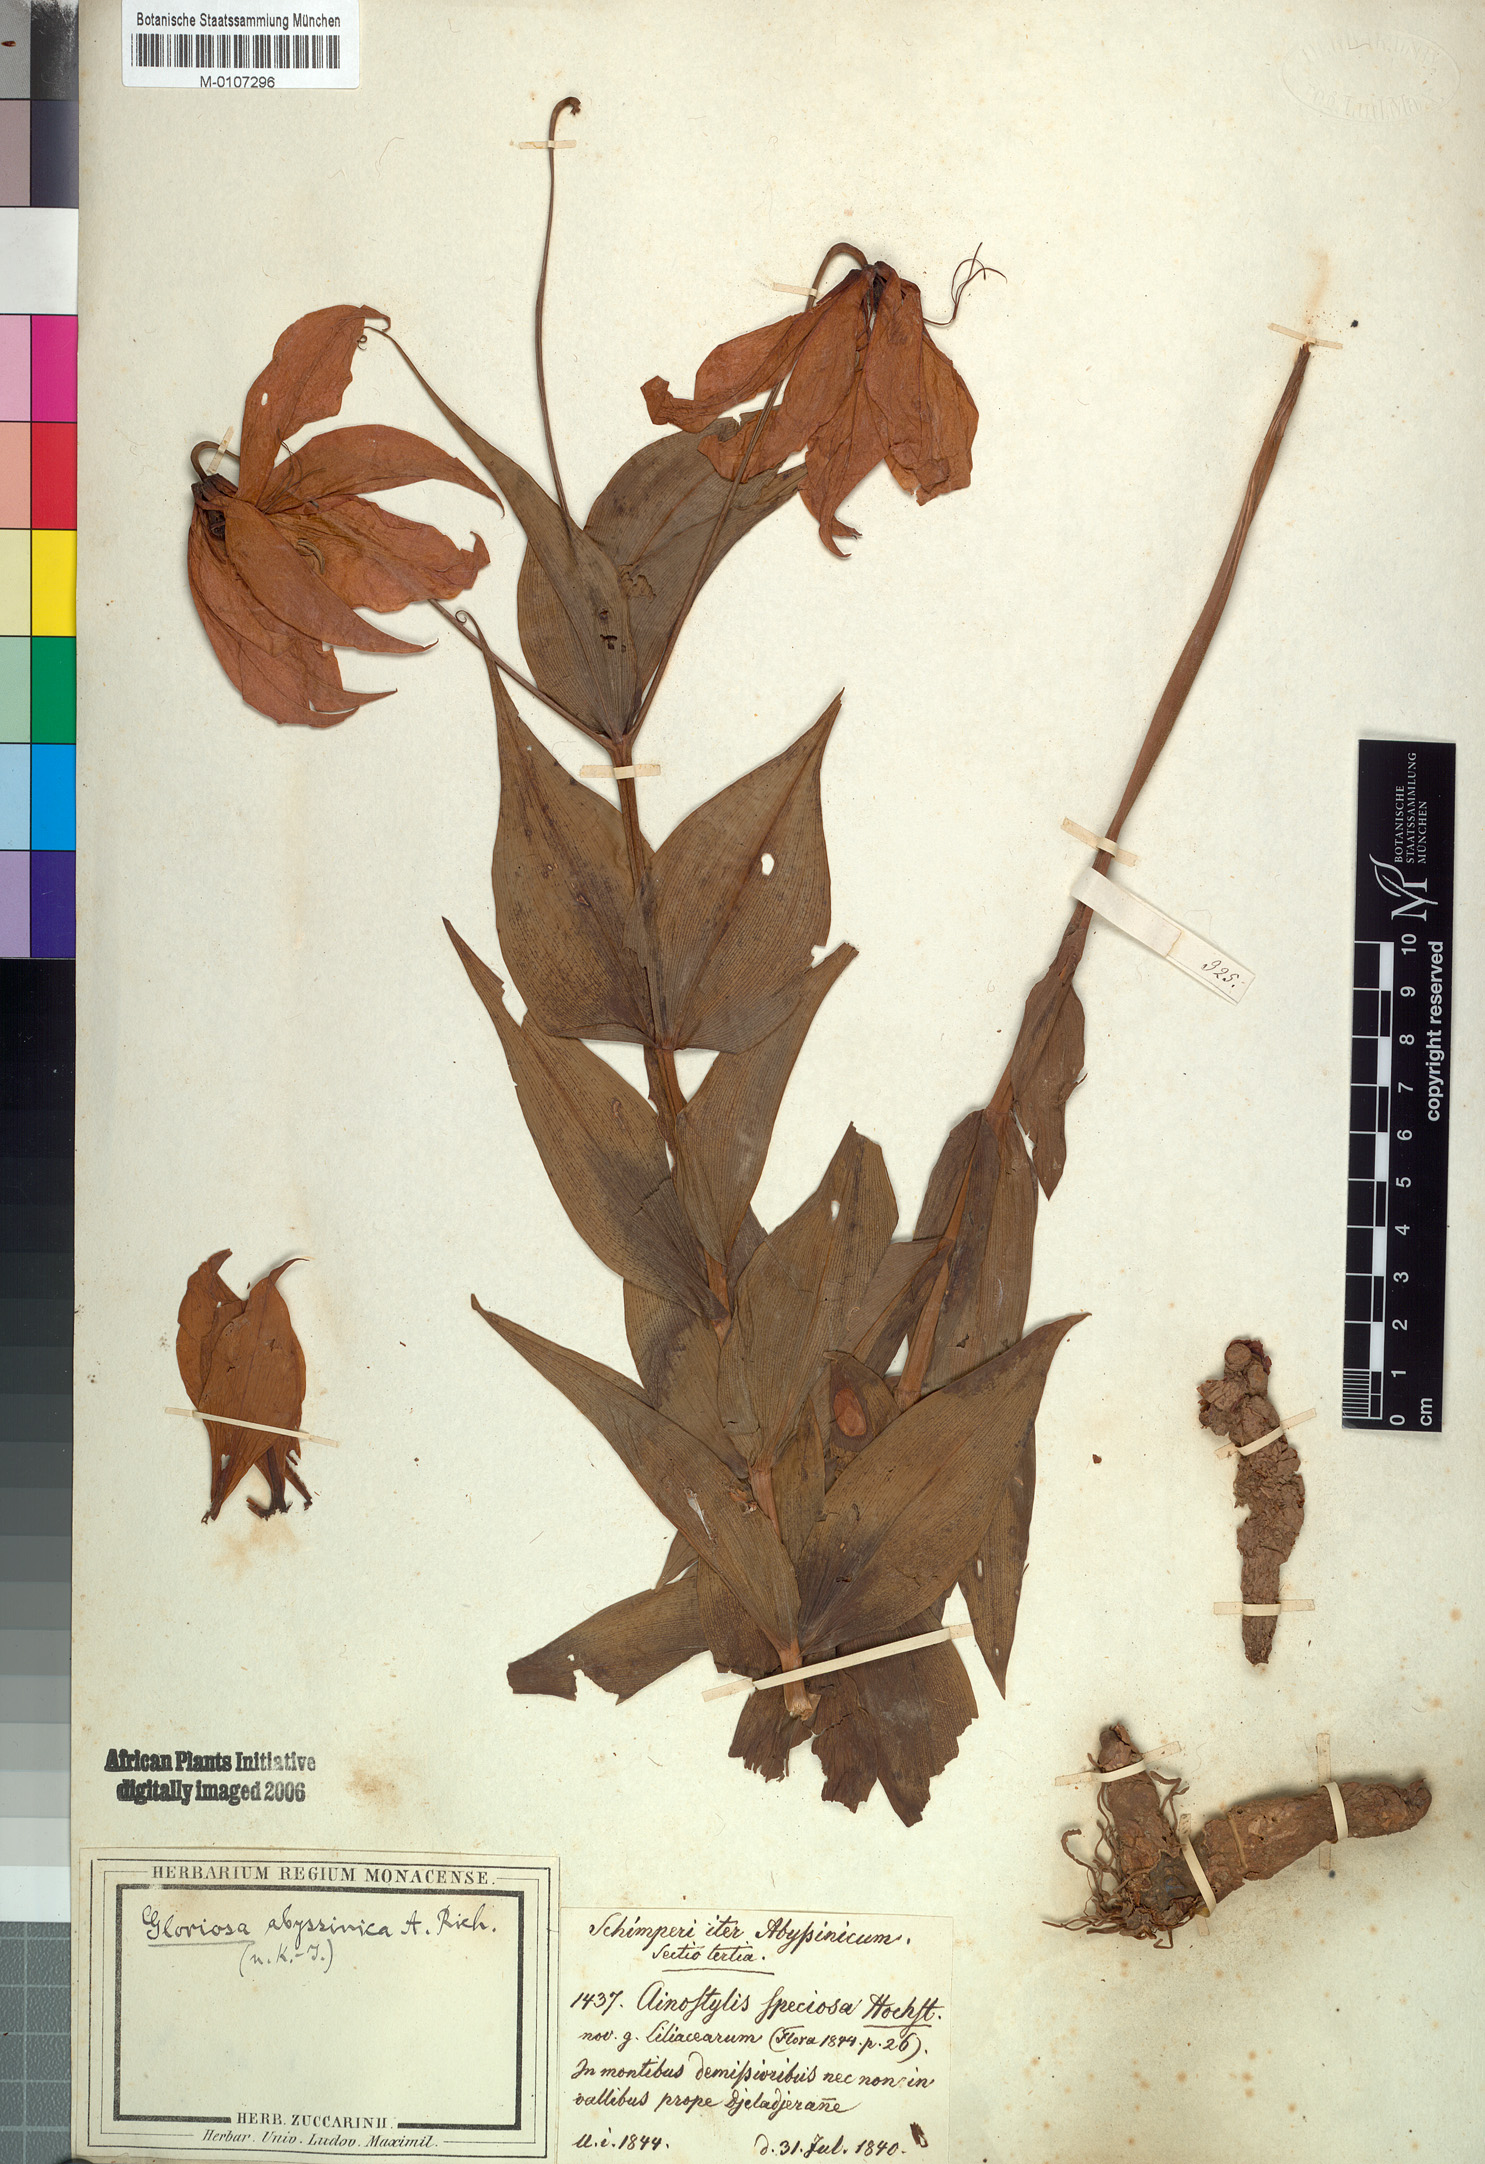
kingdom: Plantae
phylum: Tracheophyta
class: Liliopsida
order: Liliales
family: Colchicaceae
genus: Gloriosa
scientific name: Gloriosa superba
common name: Flame lily
